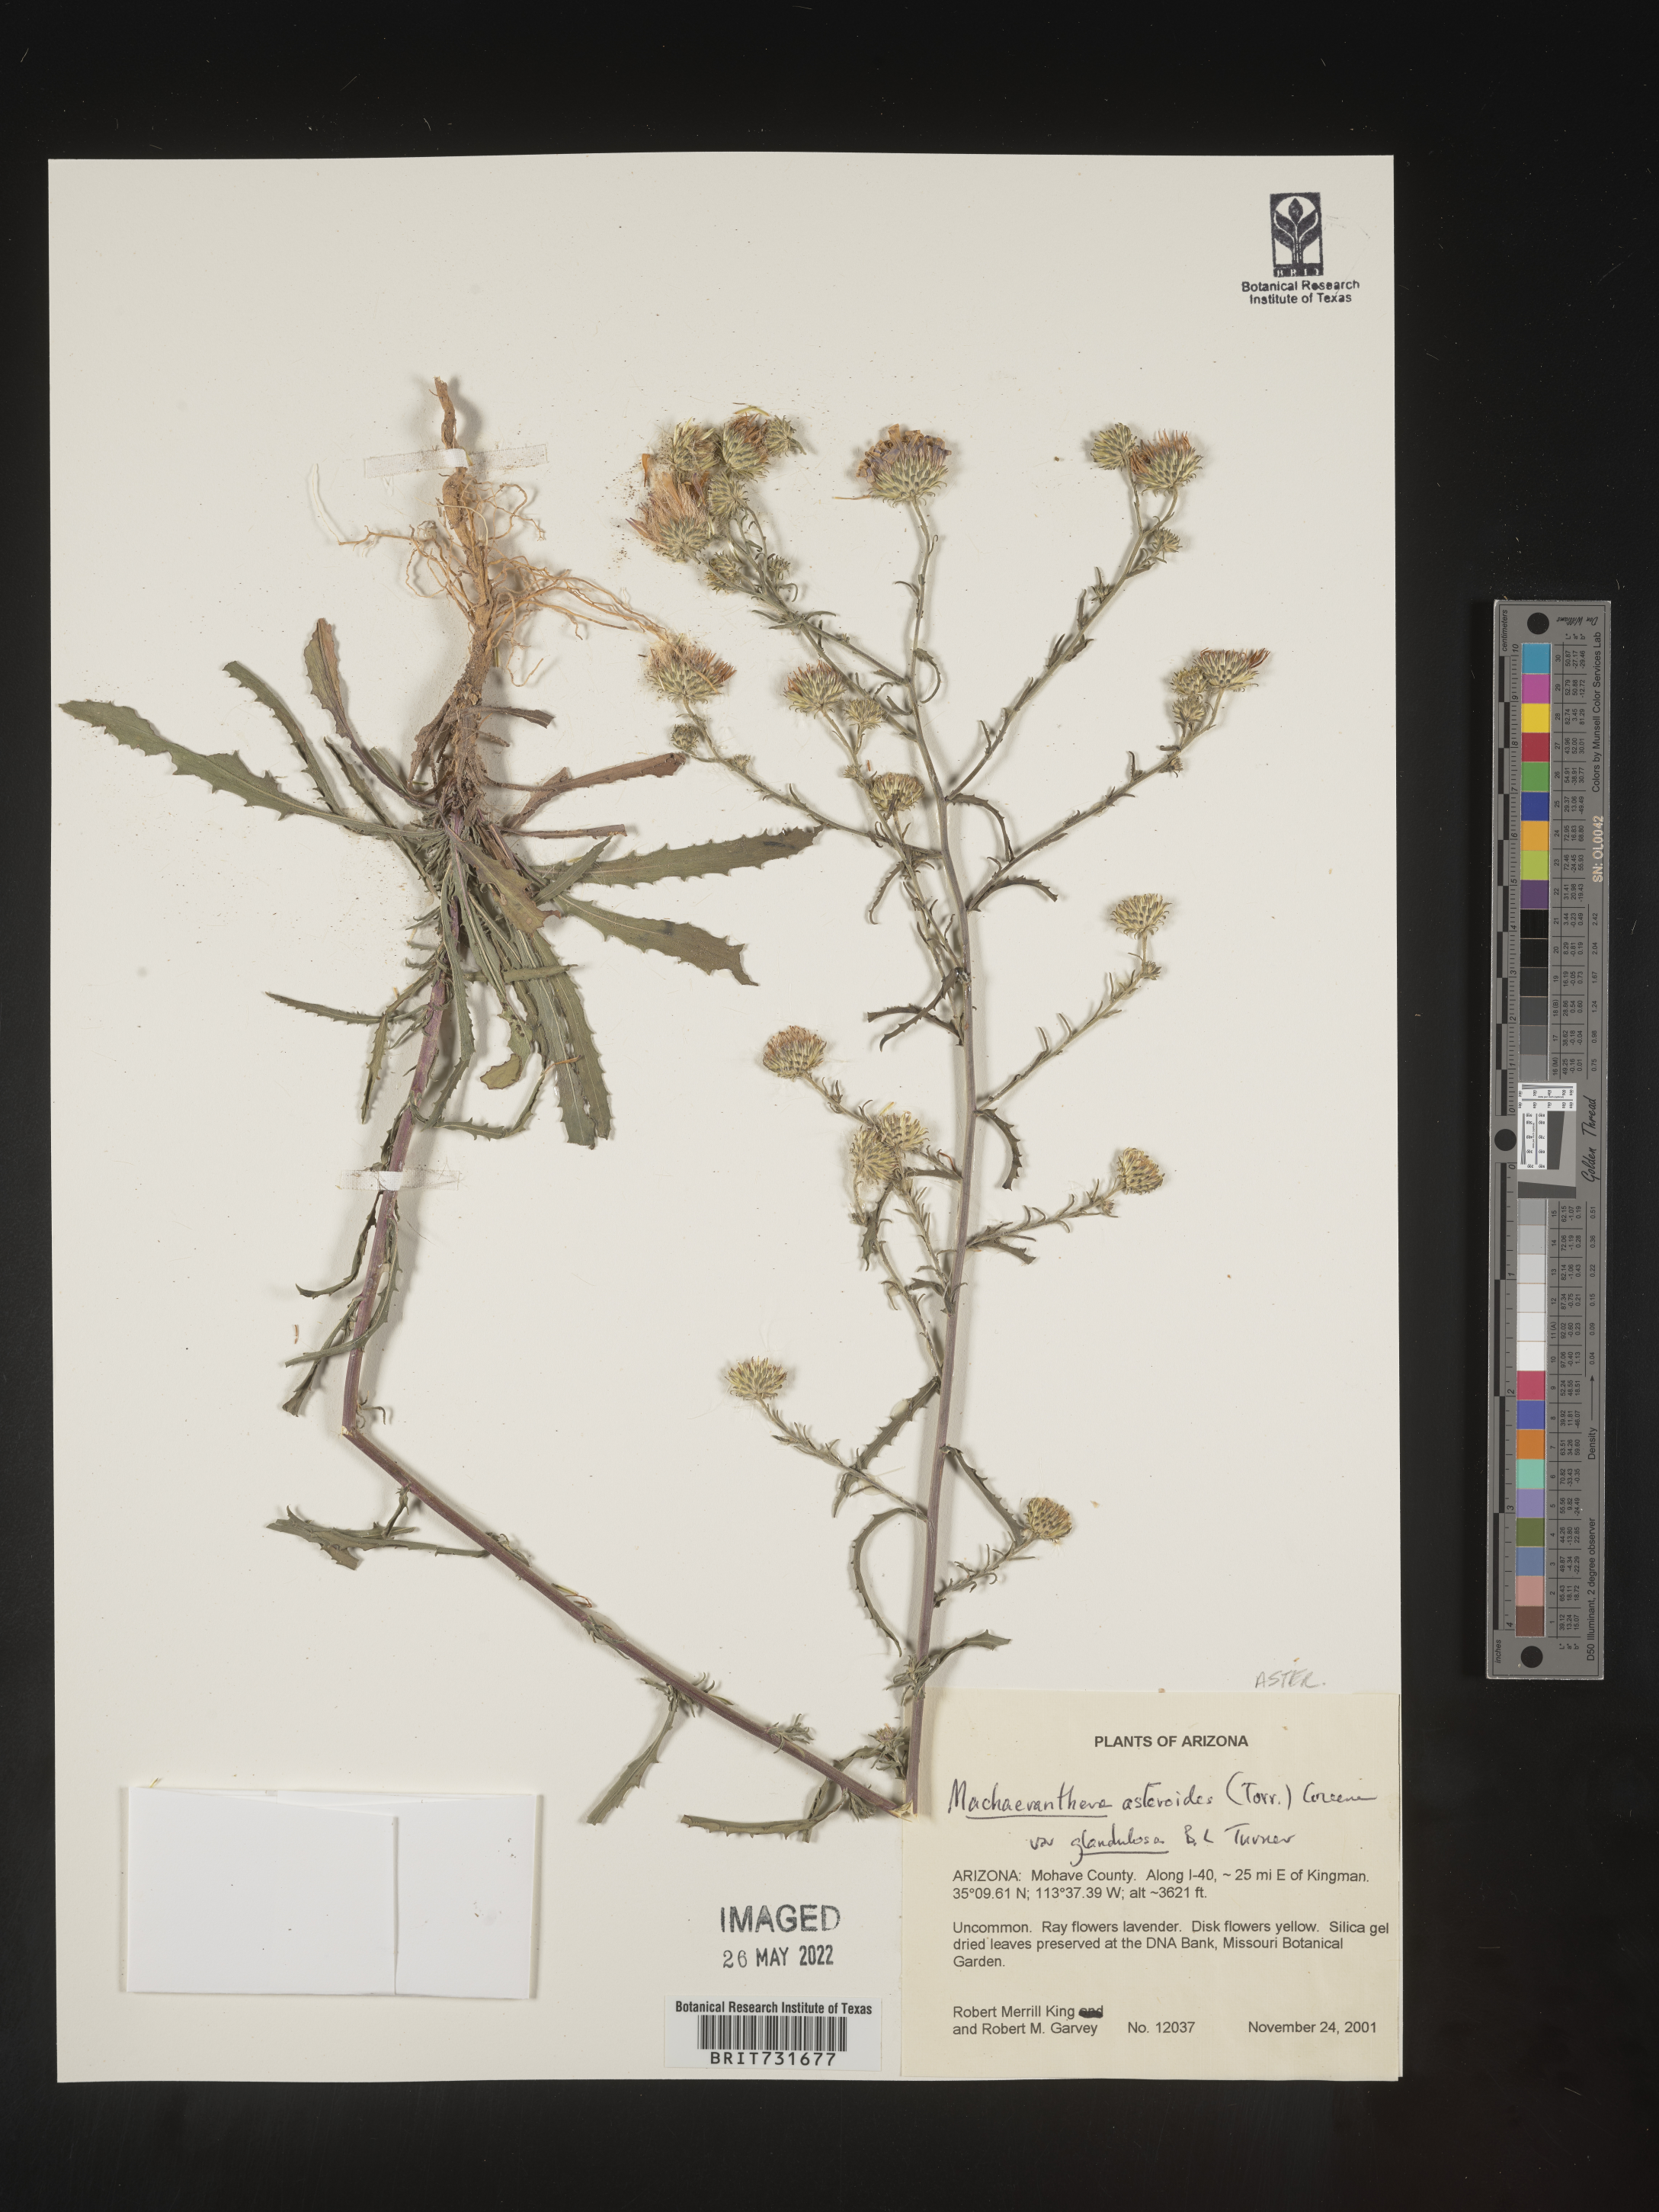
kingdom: Plantae
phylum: Tracheophyta
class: Magnoliopsida
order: Asterales
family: Asteraceae
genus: Dieteria
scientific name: Dieteria asteroides
